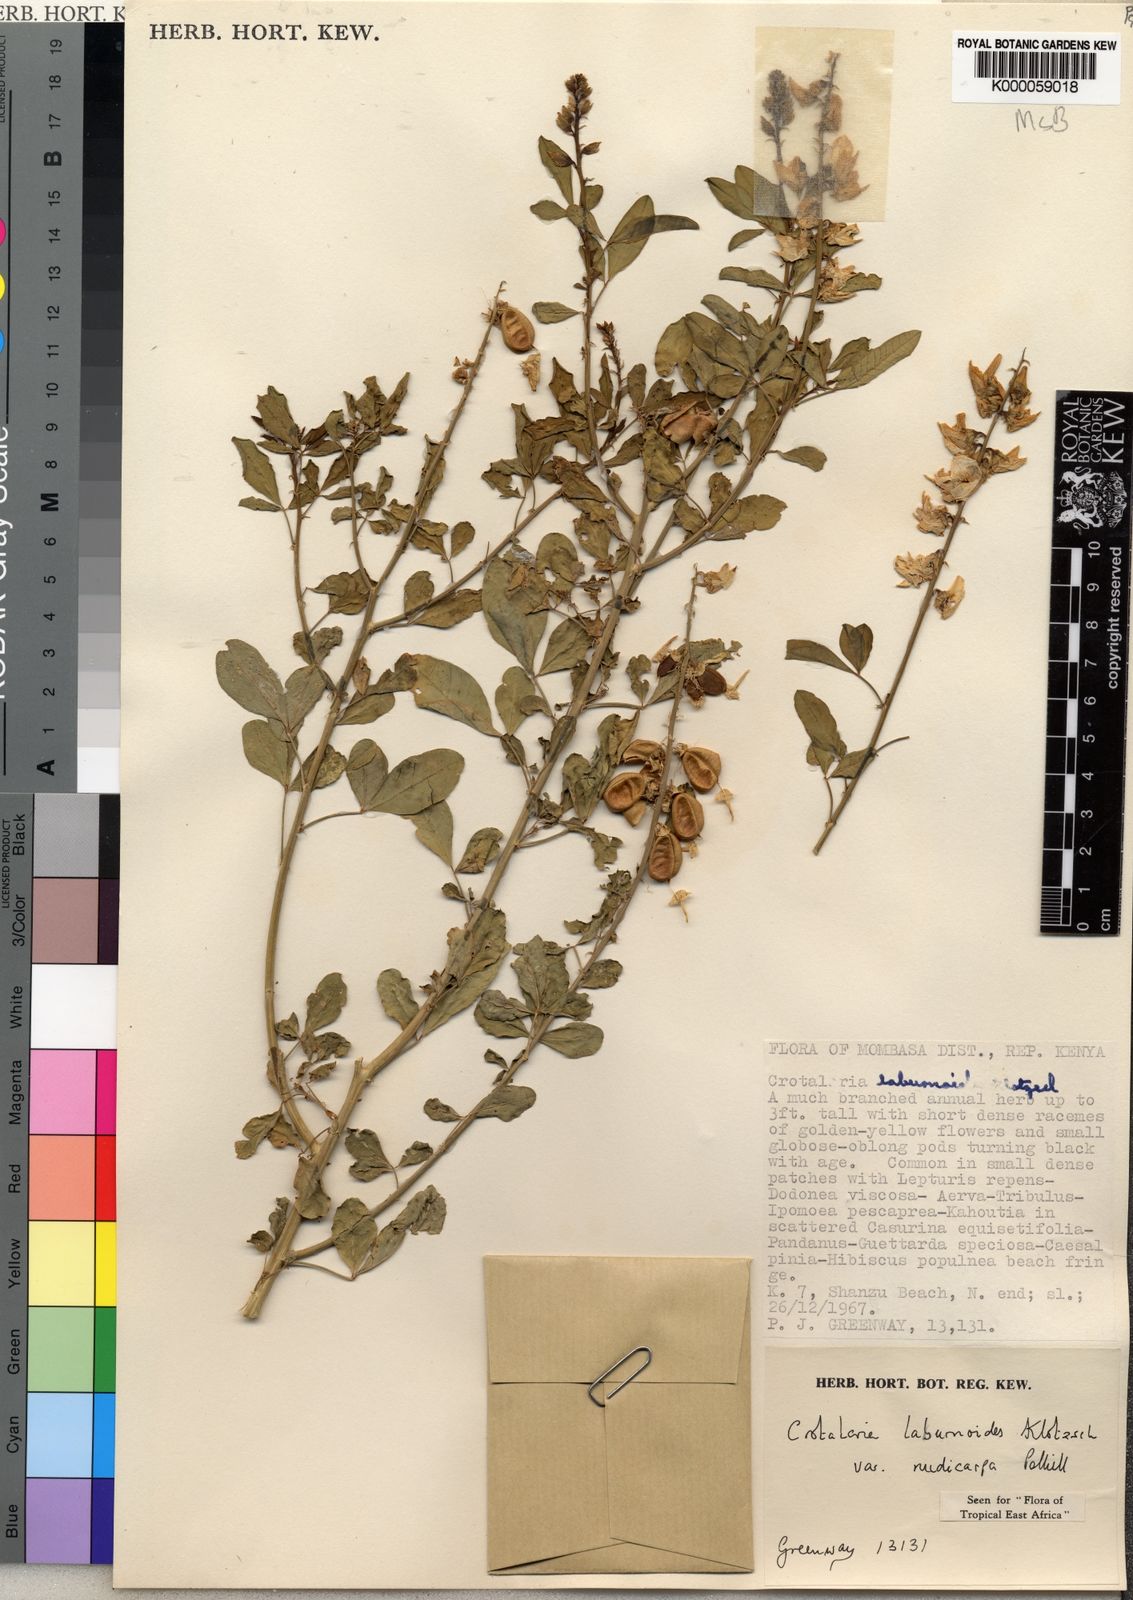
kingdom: Plantae
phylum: Tracheophyta
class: Magnoliopsida
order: Fabales
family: Fabaceae
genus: Crotalaria
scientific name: Crotalaria laburnoides
